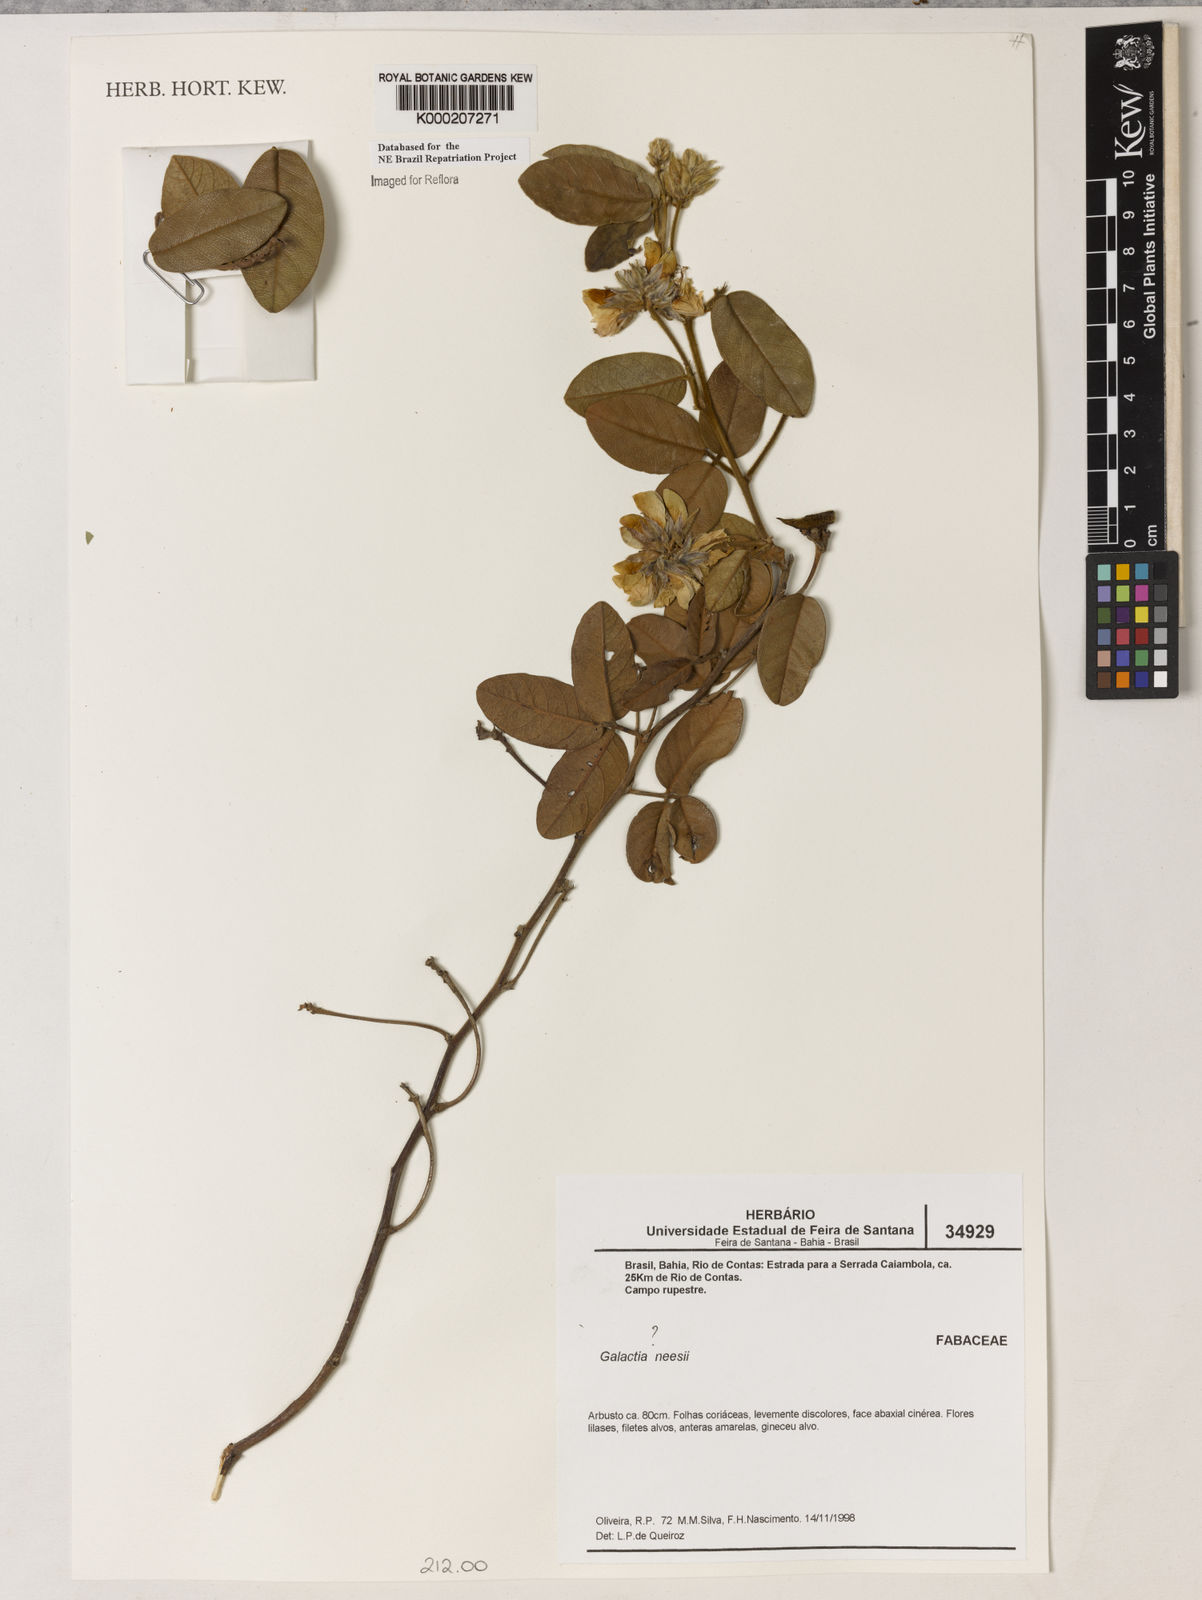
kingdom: Plantae
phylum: Tracheophyta
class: Magnoliopsida
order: Fabales
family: Fabaceae
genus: Betencourtia
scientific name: Betencourtia neesii
